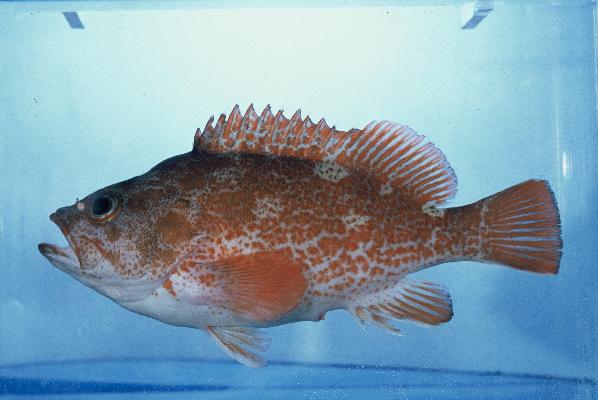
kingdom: Animalia
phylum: Chordata
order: Perciformes
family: Serranidae
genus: Acanthistius
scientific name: Acanthistius joanae
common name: Scalyjaw koester
